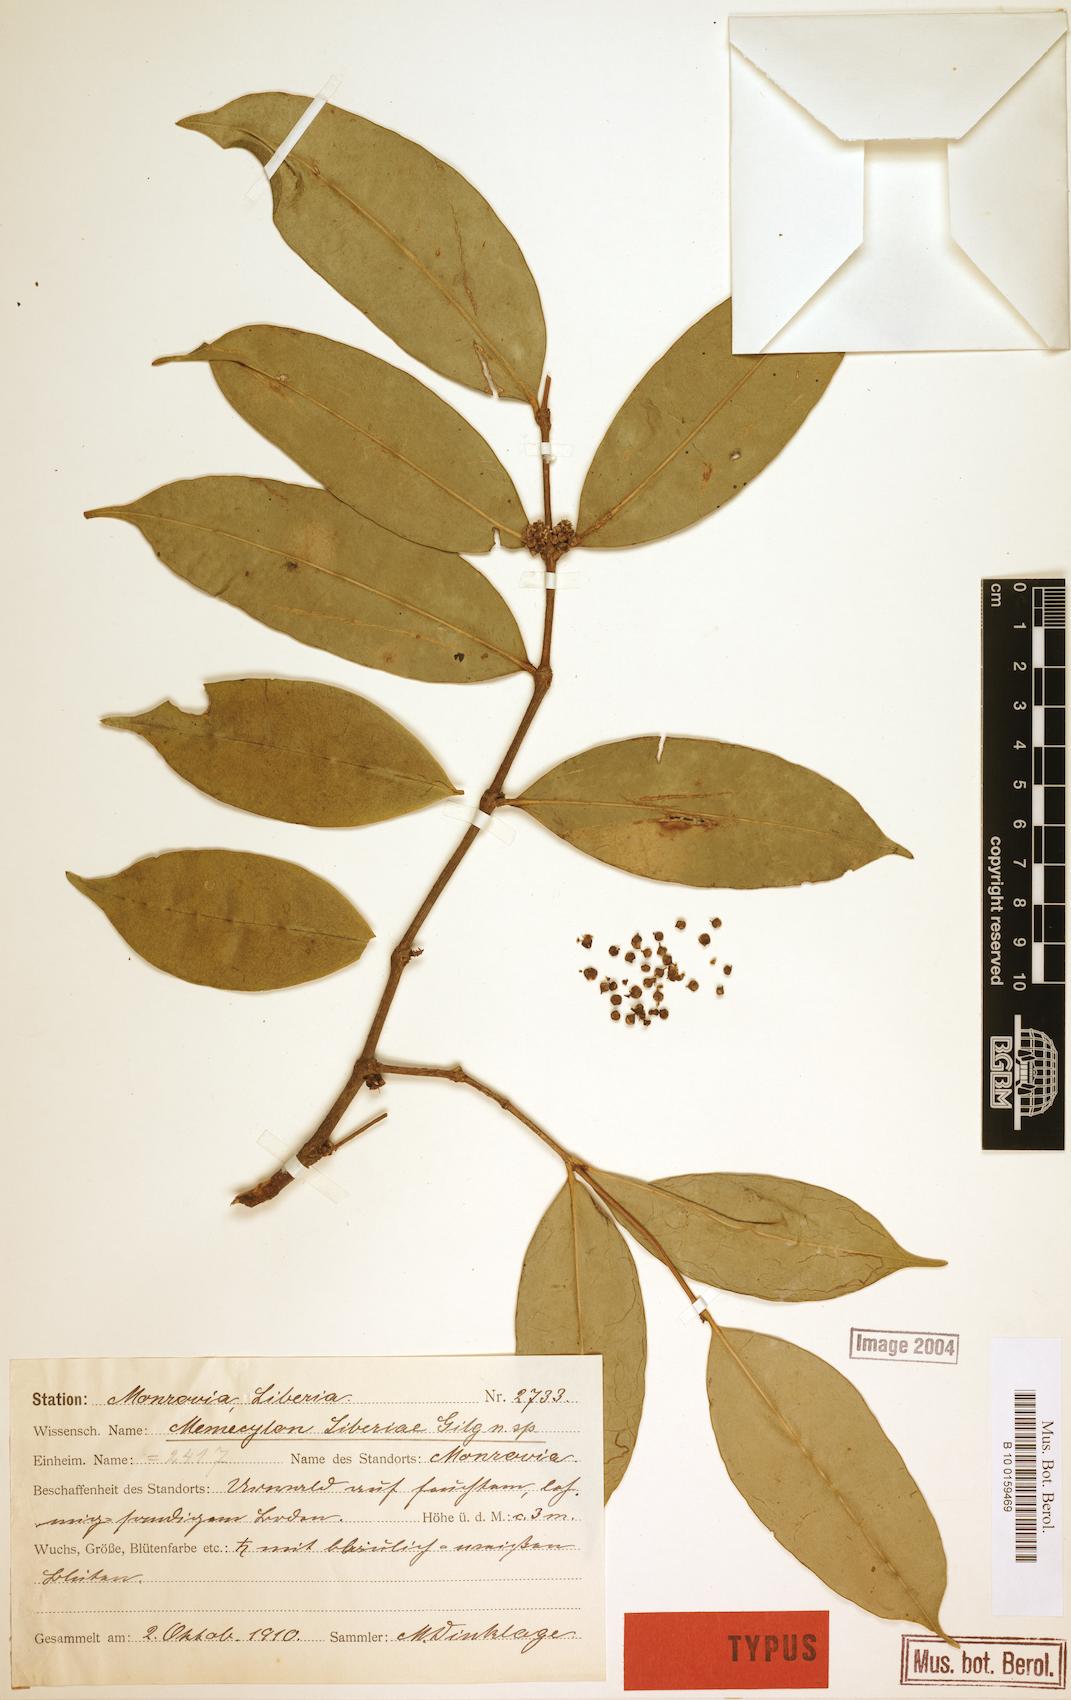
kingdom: Plantae
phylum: Tracheophyta
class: Magnoliopsida
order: Myrtales
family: Melastomataceae
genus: Memecylon
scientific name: Memecylon liberiae
